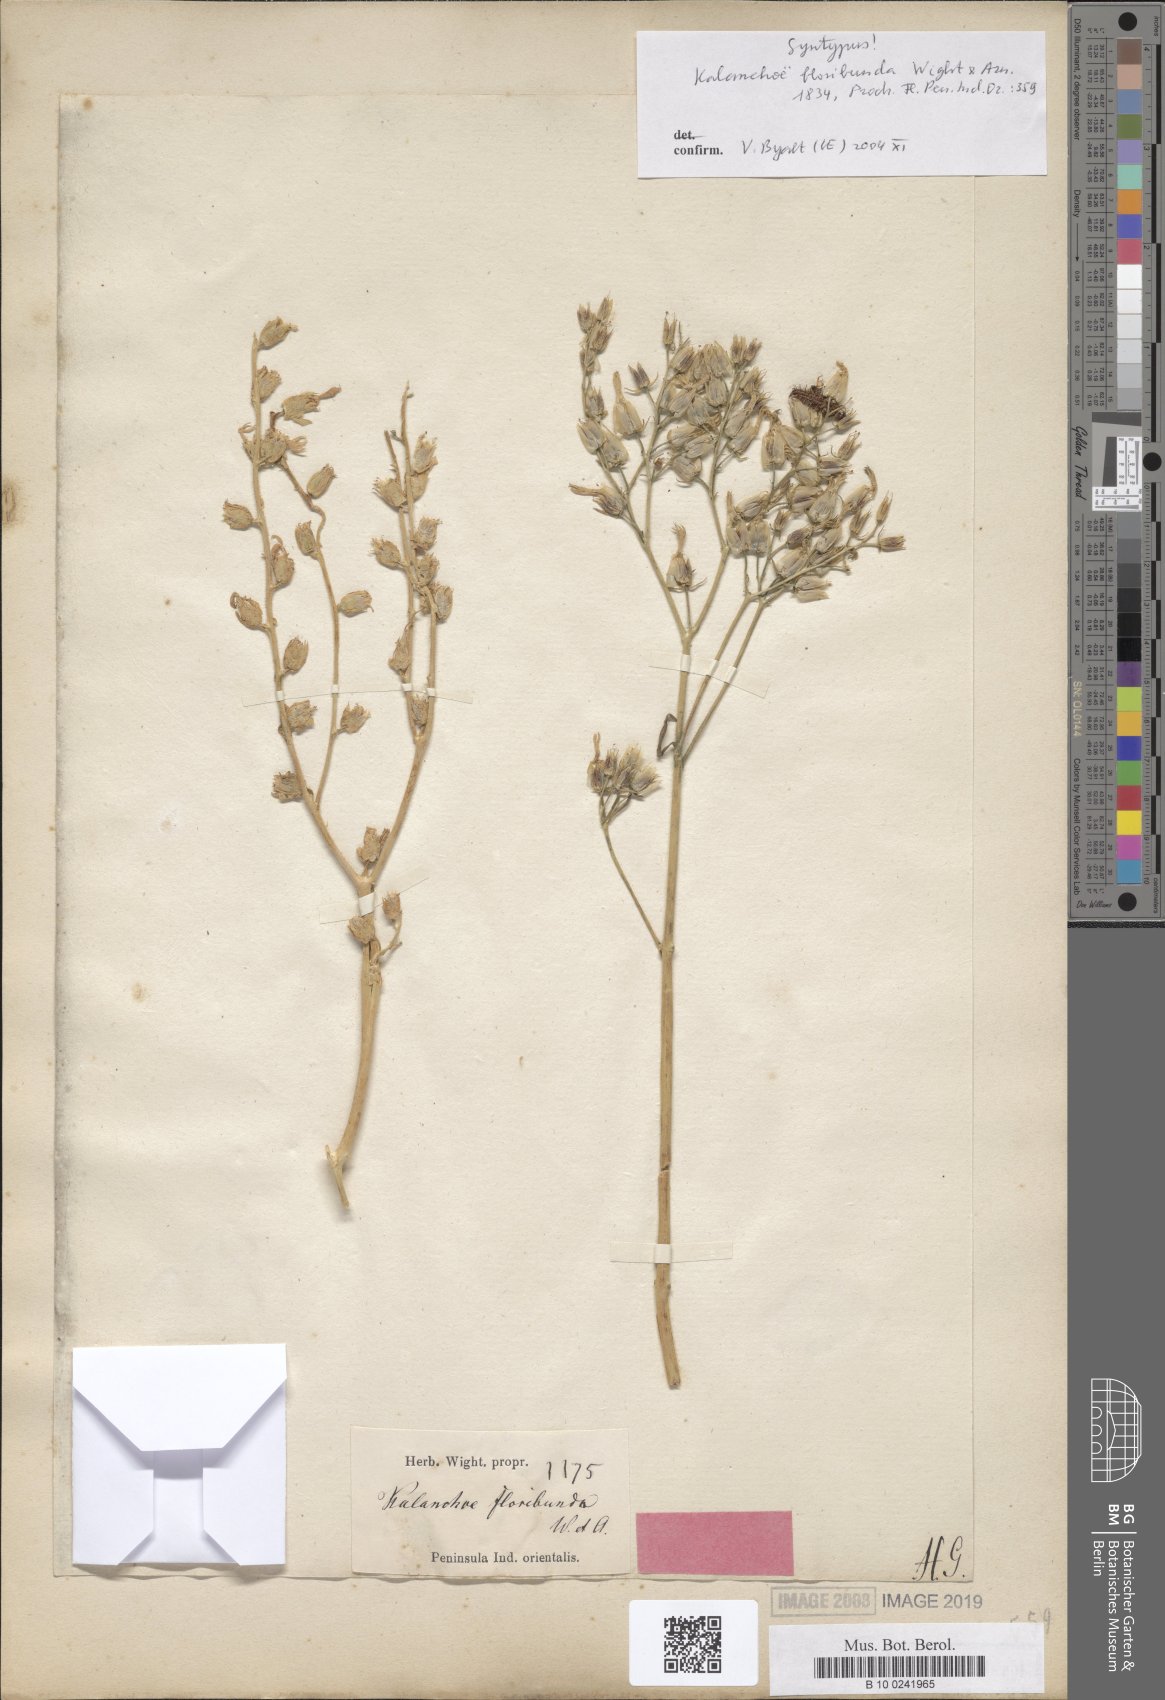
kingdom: Plantae
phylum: Tracheophyta
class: Magnoliopsida
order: Saxifragales
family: Crassulaceae
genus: Kalanchoe
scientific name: Kalanchoe floribunda
